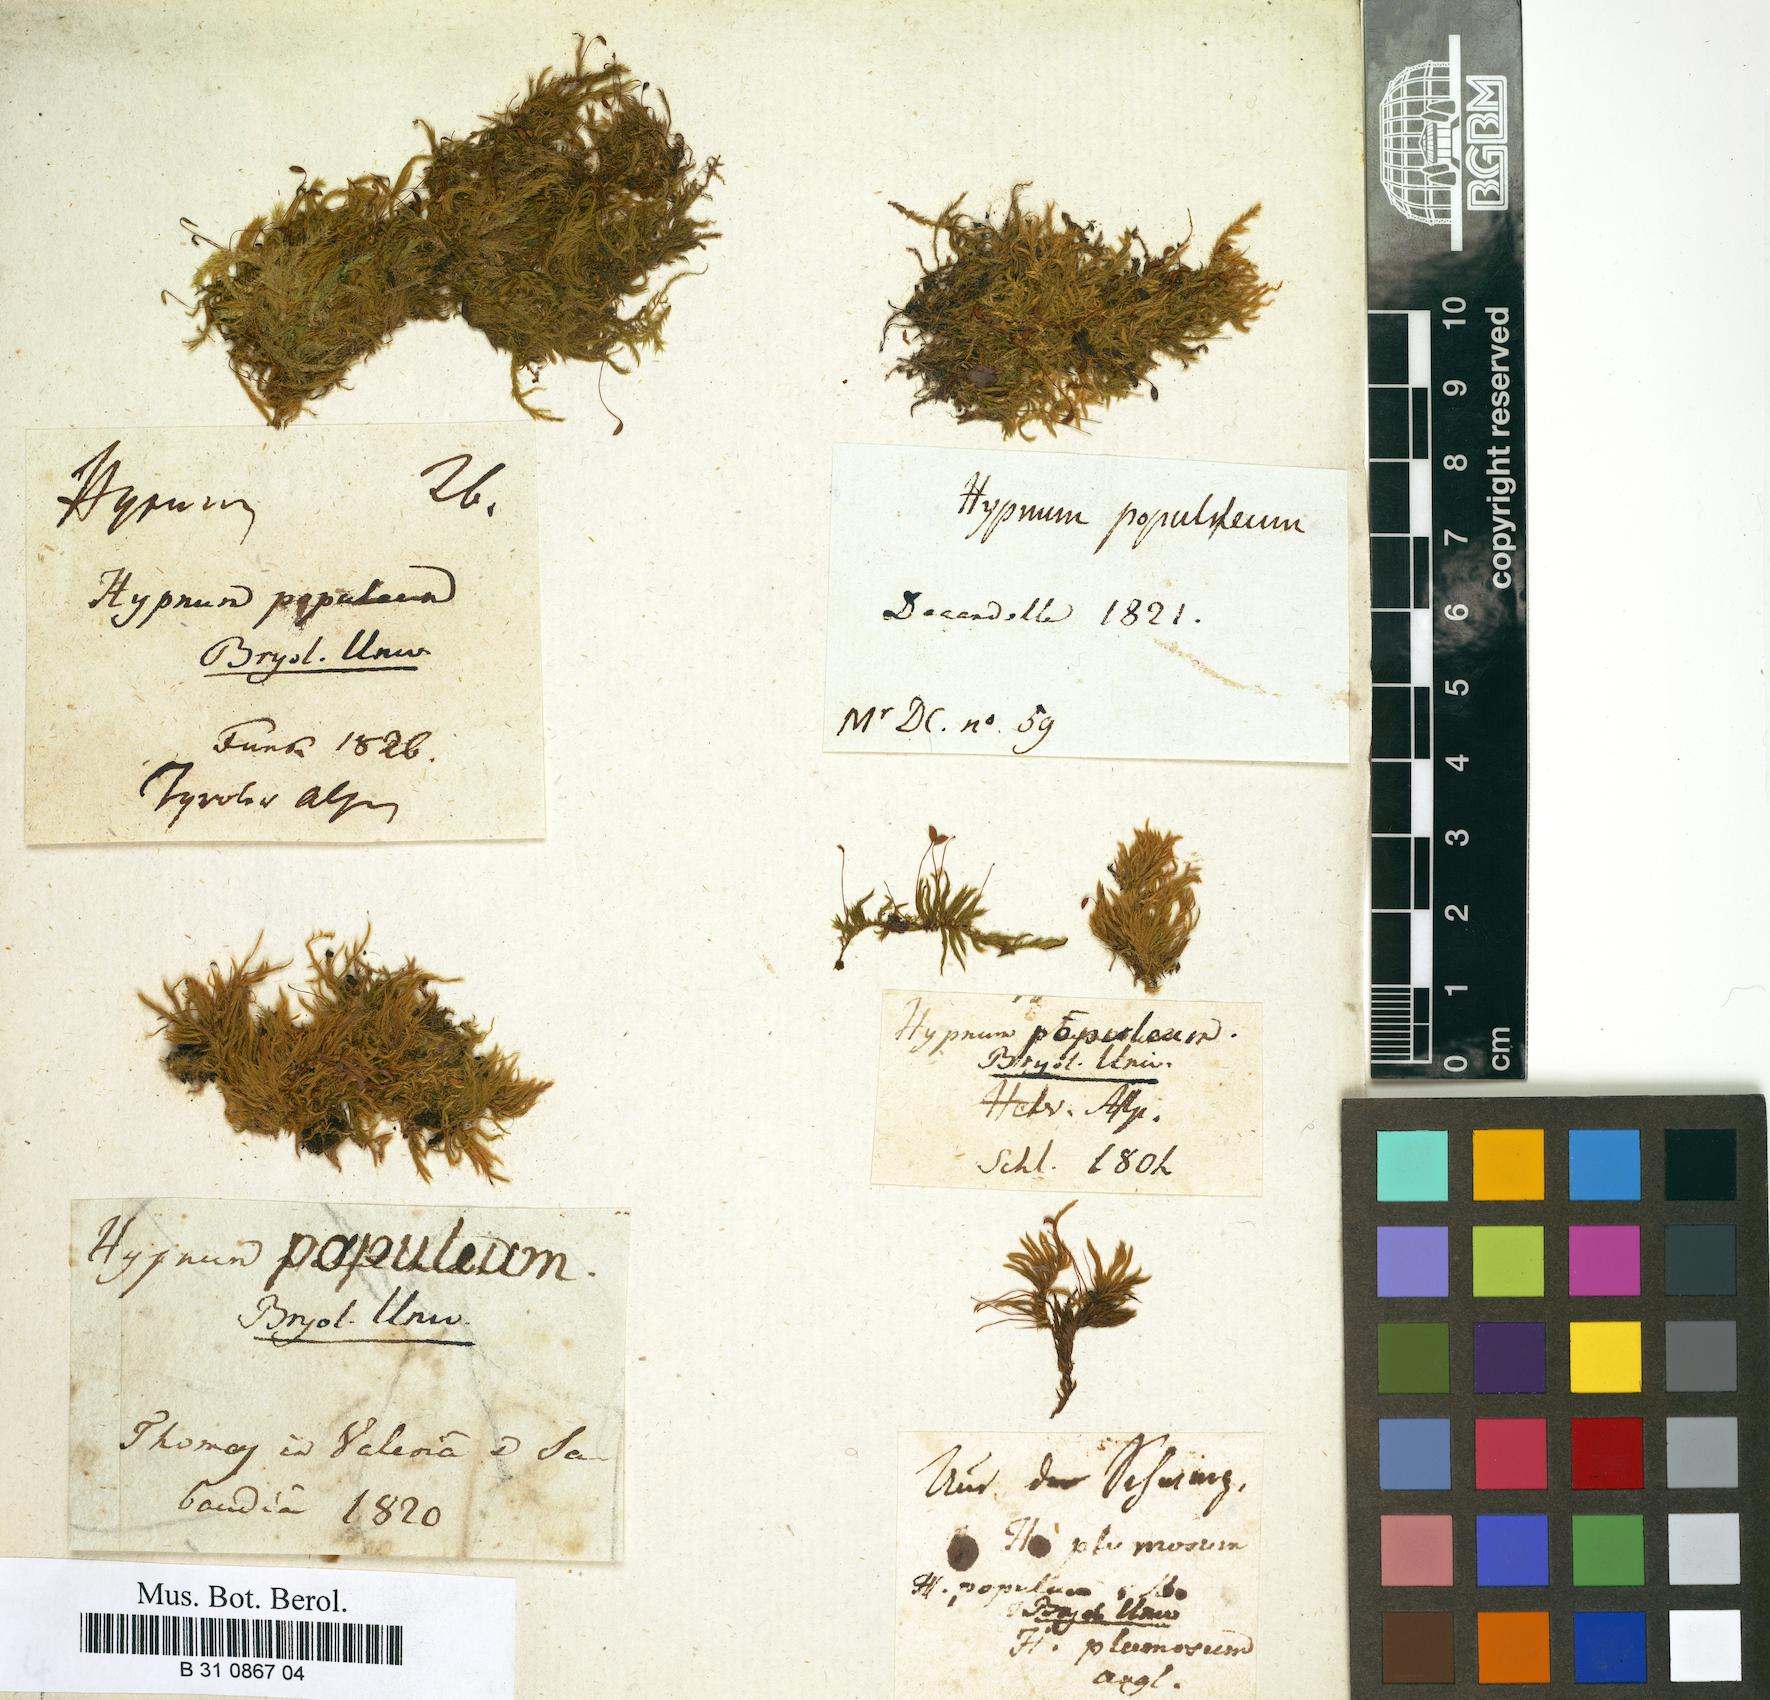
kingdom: Plantae
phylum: Bryophyta
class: Bryopsida
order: Hypnales
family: Brachytheciaceae
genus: Sciuro-hypnum
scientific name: Sciuro-hypnum populeum
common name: Matted feather-moss
